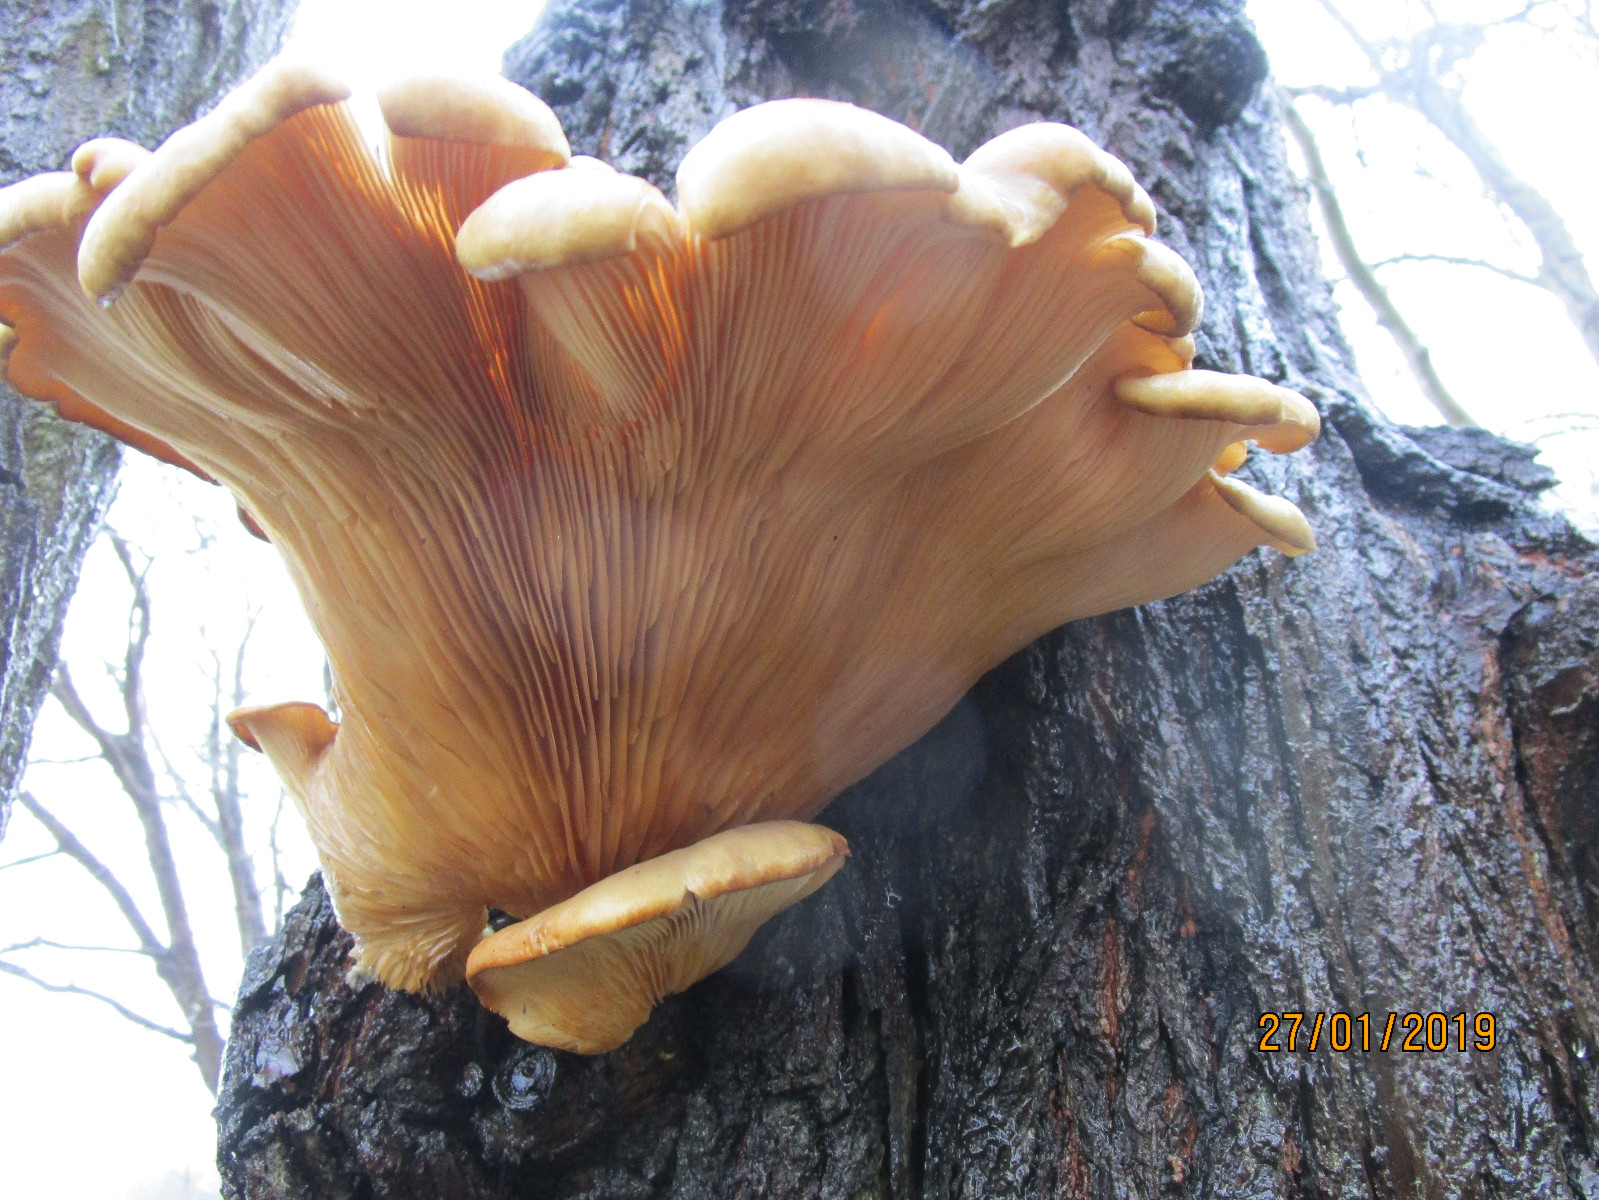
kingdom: Fungi
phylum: Basidiomycota
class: Agaricomycetes
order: Agaricales
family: Pleurotaceae
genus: Pleurotus
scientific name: Pleurotus ostreatus
